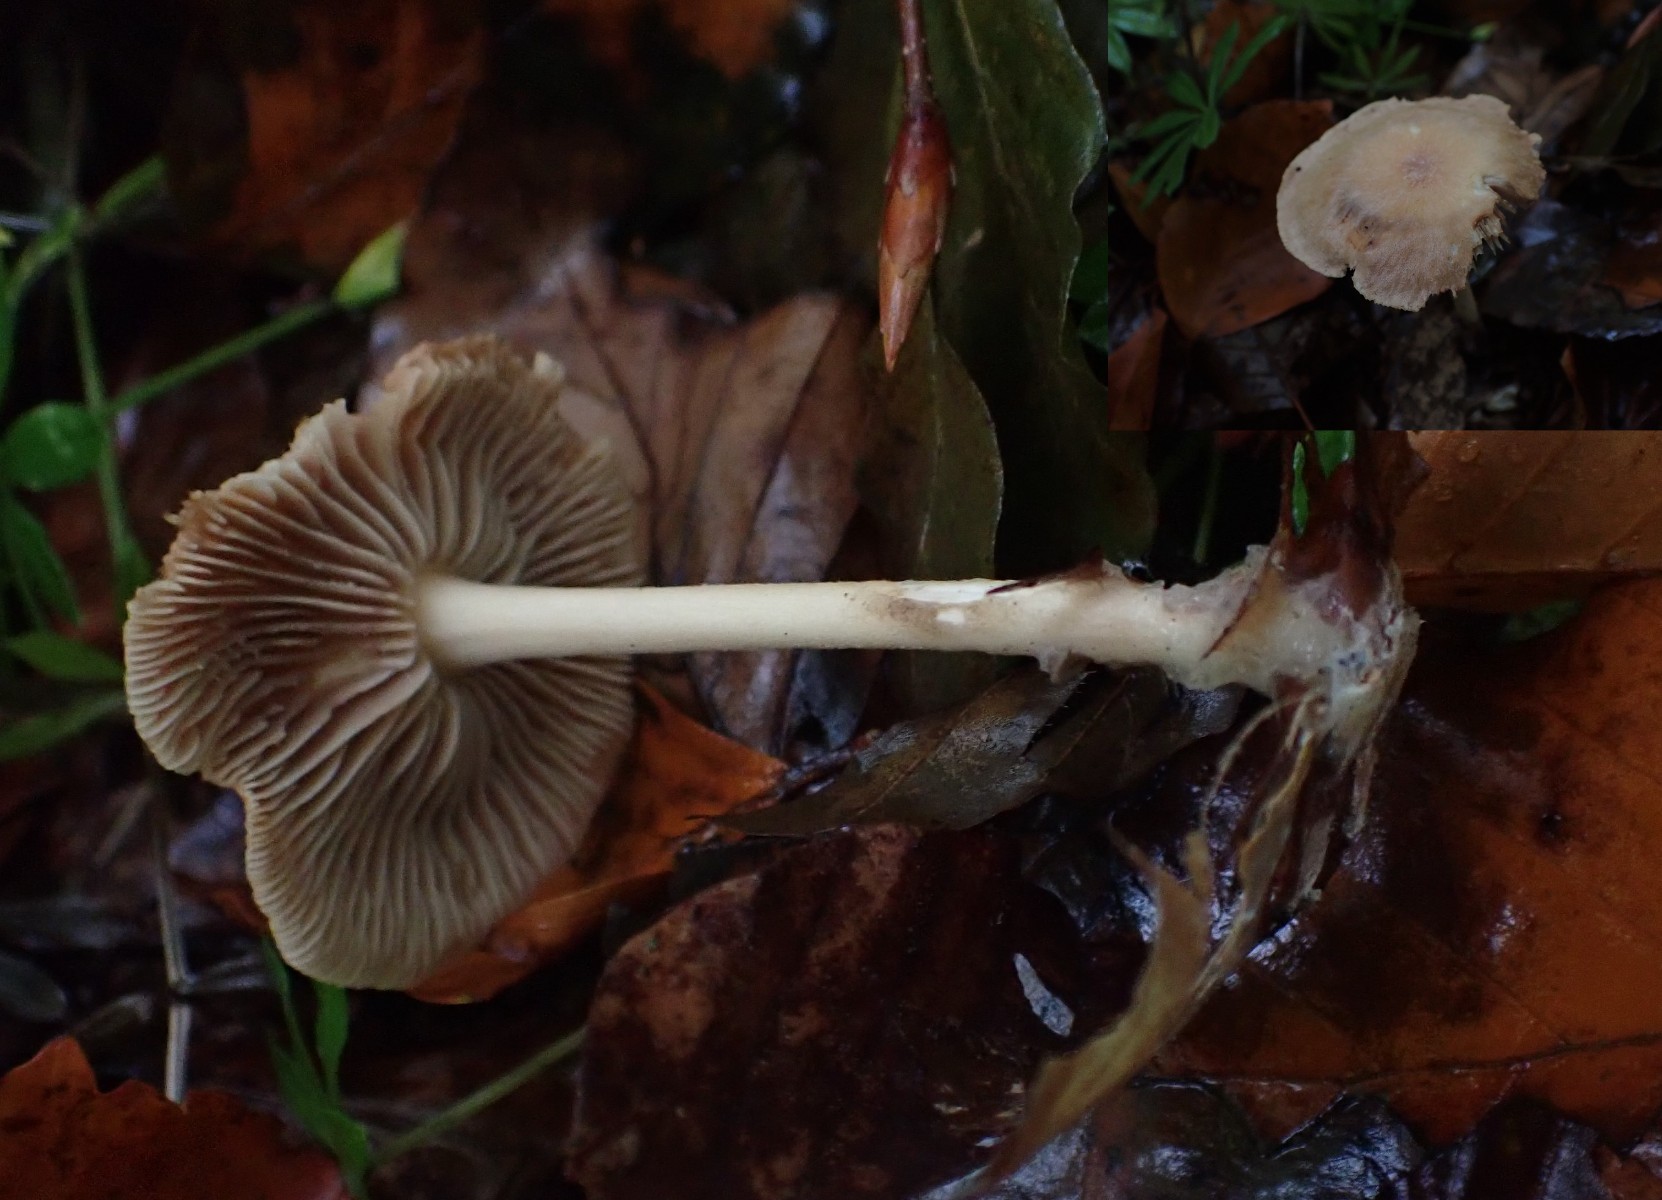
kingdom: Fungi
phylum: Basidiomycota
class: Agaricomycetes
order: Agaricales
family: Omphalotaceae
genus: Collybiopsis
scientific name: Collybiopsis peronata
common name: bestøvlet fladhat
